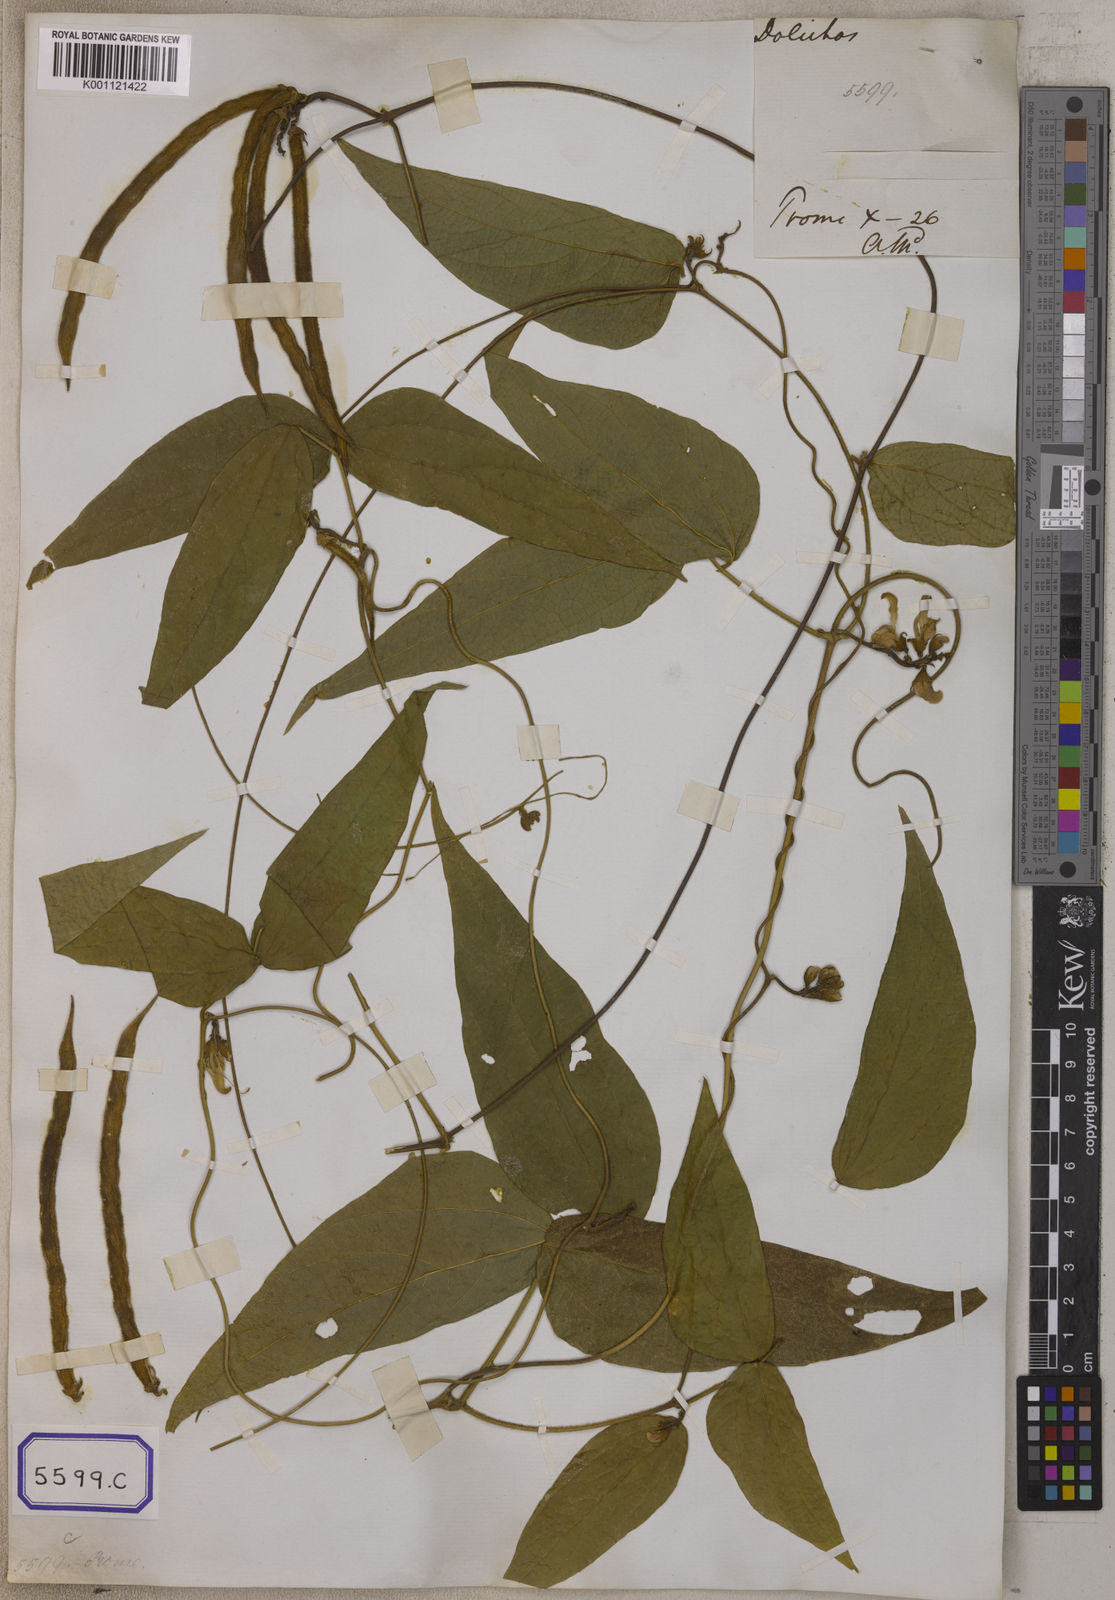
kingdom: Plantae
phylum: Tracheophyta
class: Magnoliopsida
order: Fabales
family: Fabaceae
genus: Dysolobium
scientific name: Dysolobium pilosum
